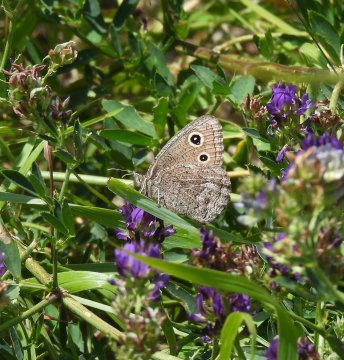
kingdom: Animalia
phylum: Arthropoda
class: Insecta
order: Lepidoptera
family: Nymphalidae
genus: Cercyonis
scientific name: Cercyonis oetus
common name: Small Wood-Nymph
